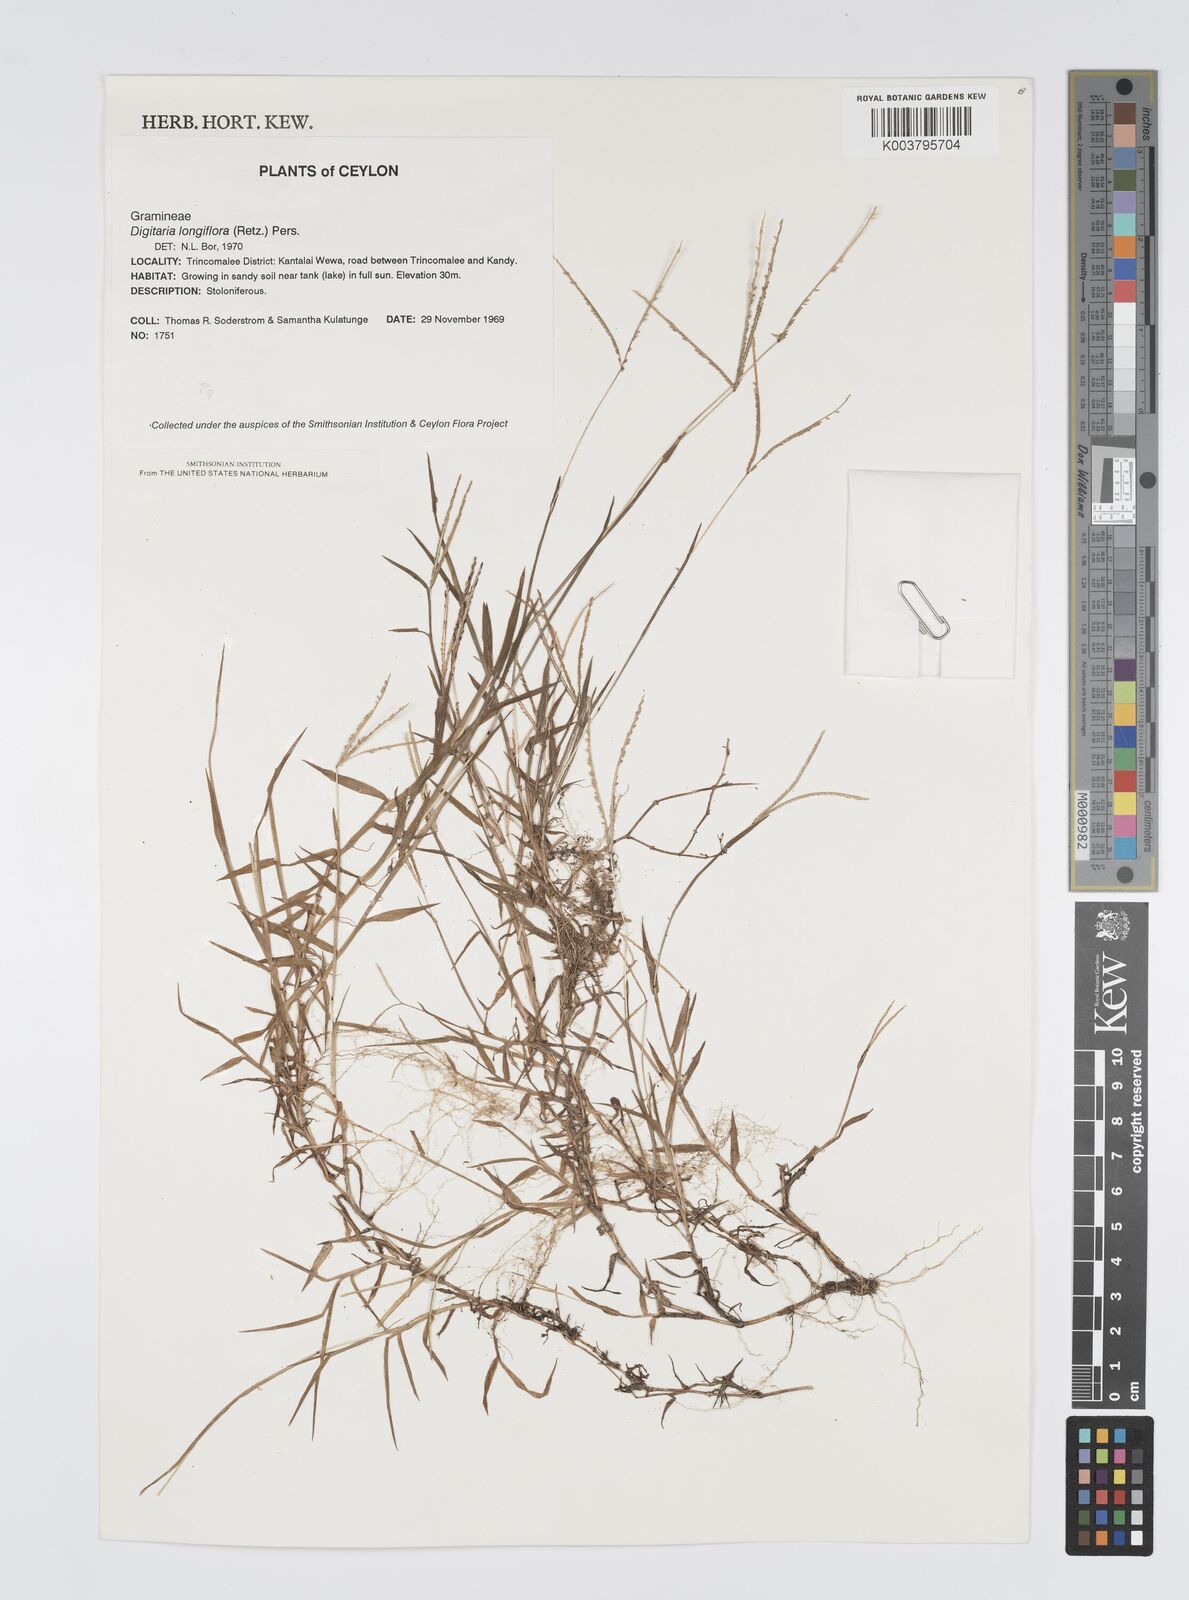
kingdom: Plantae
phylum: Tracheophyta
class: Liliopsida
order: Poales
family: Poaceae
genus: Digitaria
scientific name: Digitaria longiflora
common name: Wire crabgrass
